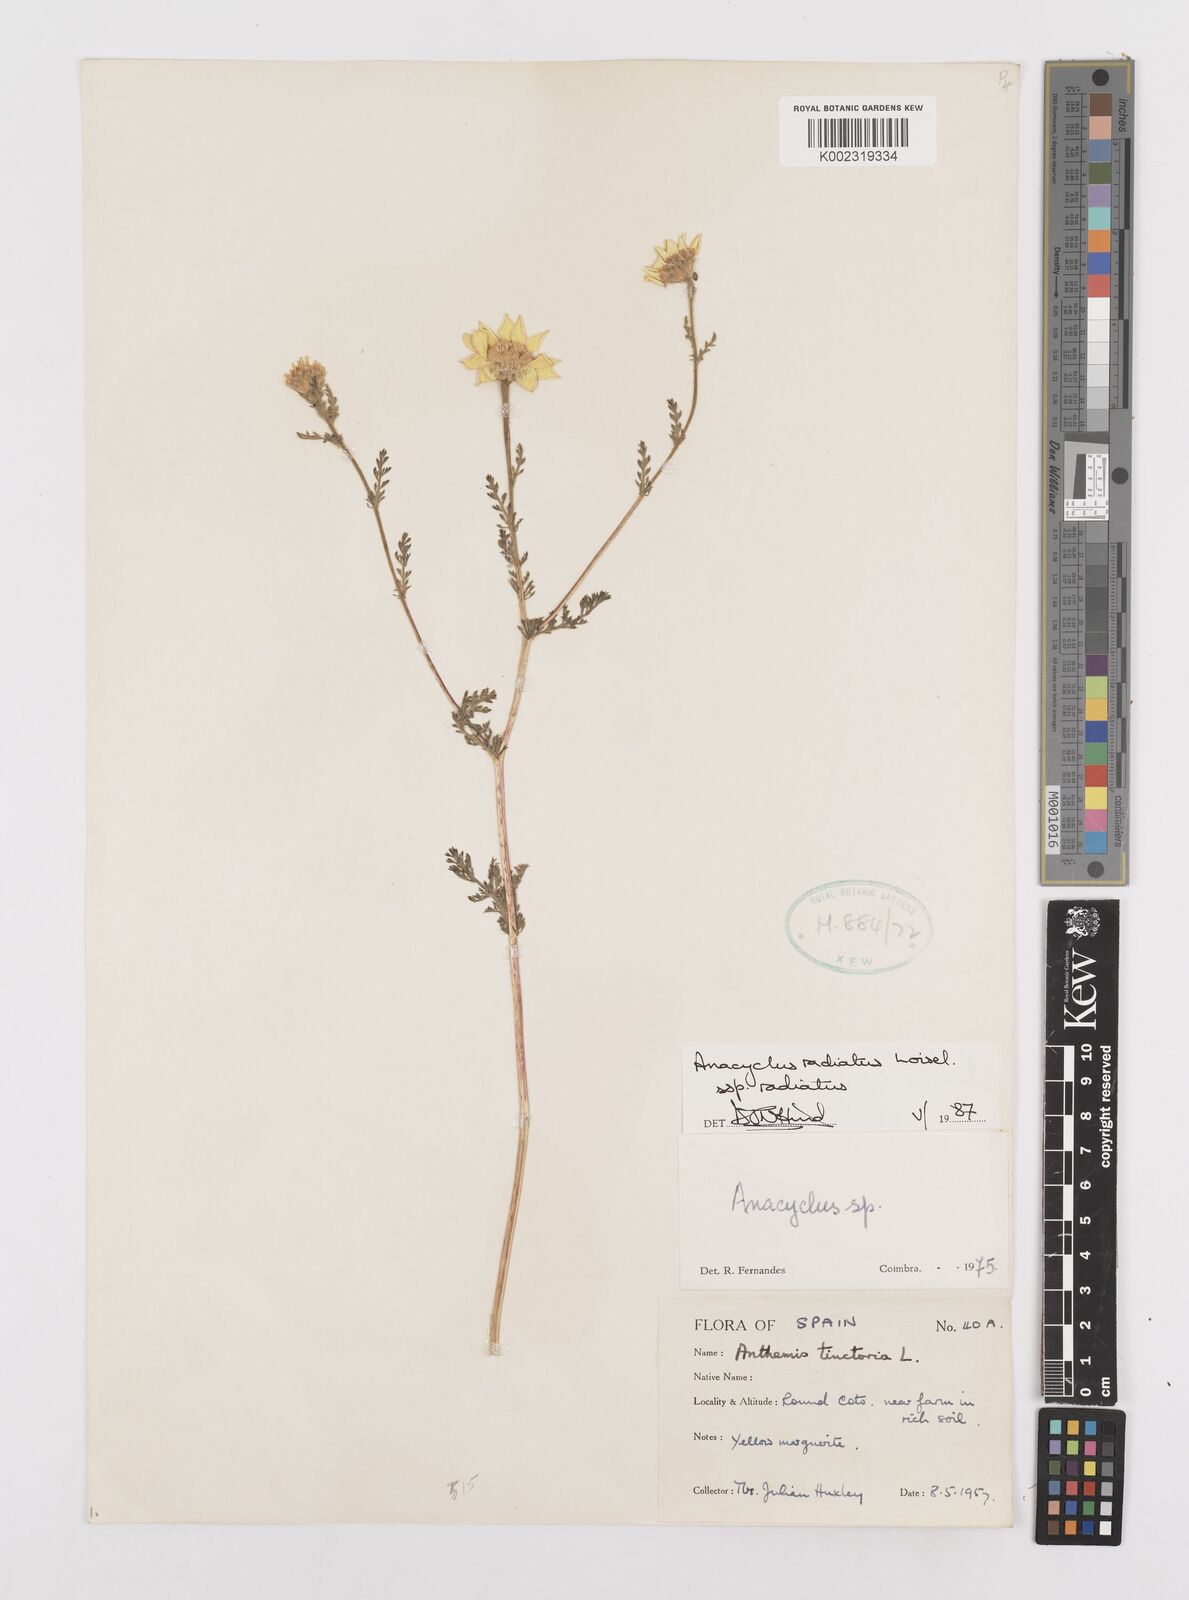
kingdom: Plantae
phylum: Tracheophyta
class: Magnoliopsida
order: Asterales
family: Asteraceae
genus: Anacyclus
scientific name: Anacyclus radiatus
